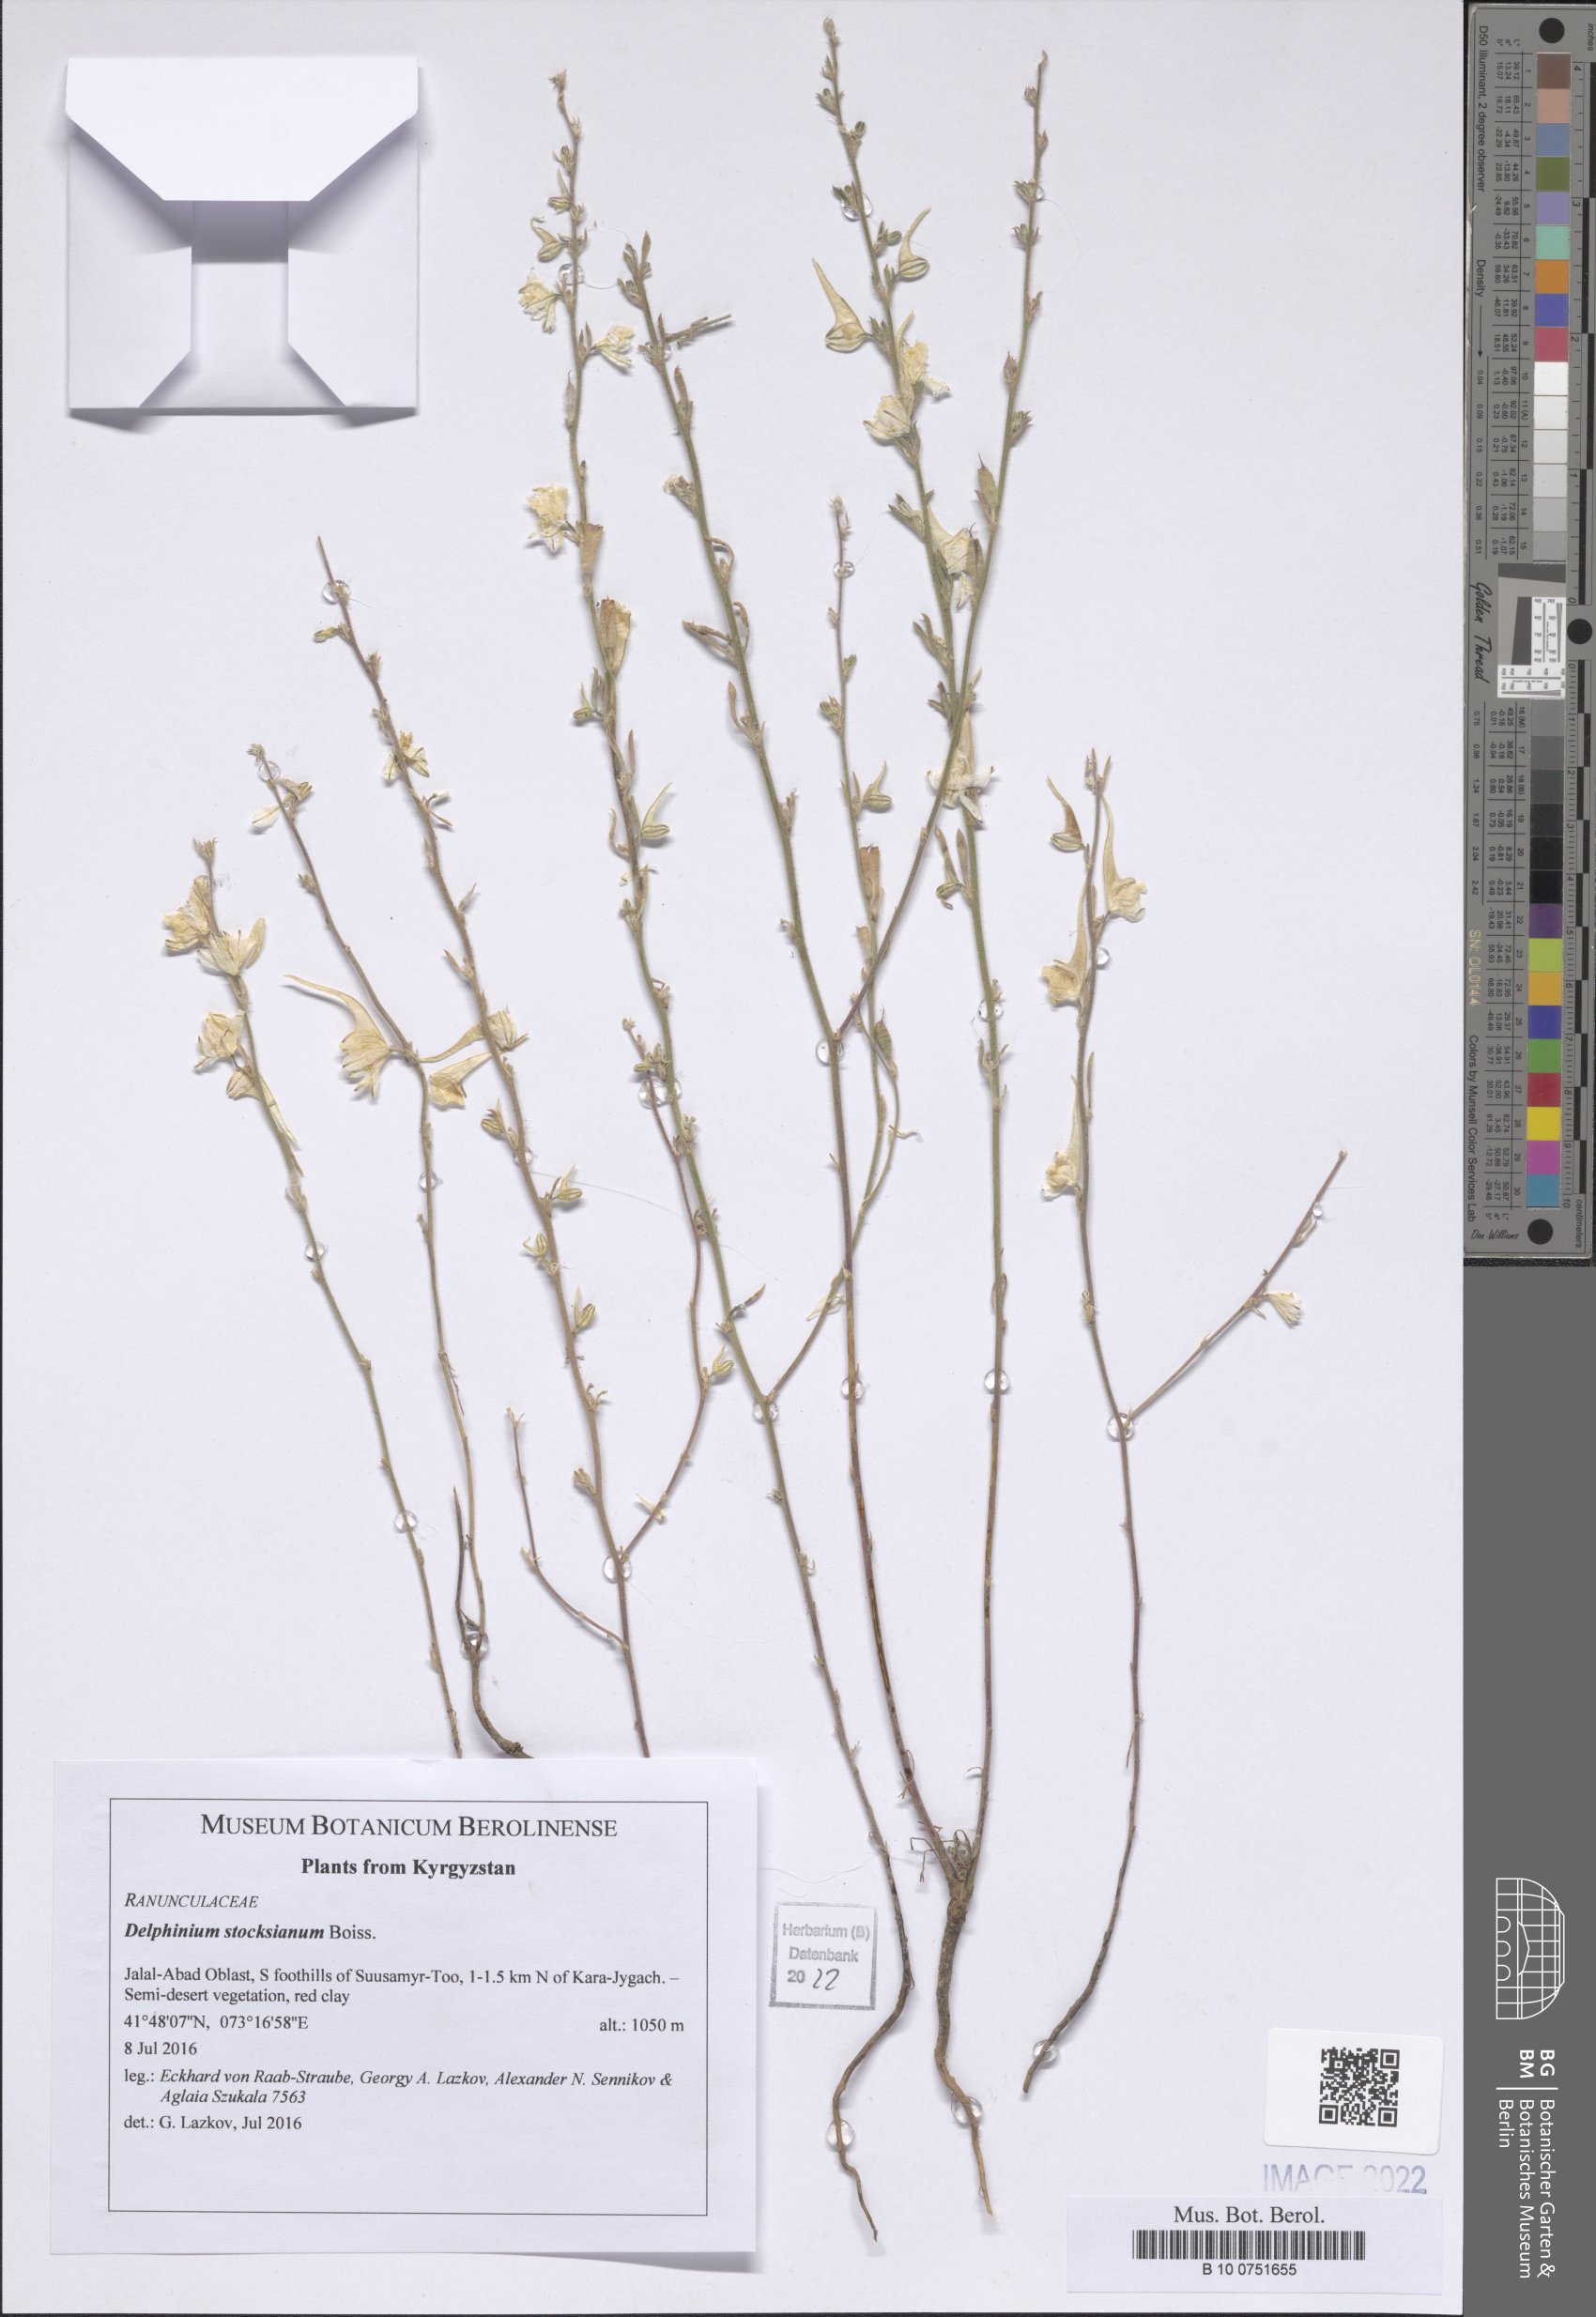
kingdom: Plantae
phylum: Tracheophyta
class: Magnoliopsida
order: Ranunculales
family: Ranunculaceae
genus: Delphinium
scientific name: Delphinium stocksianum
